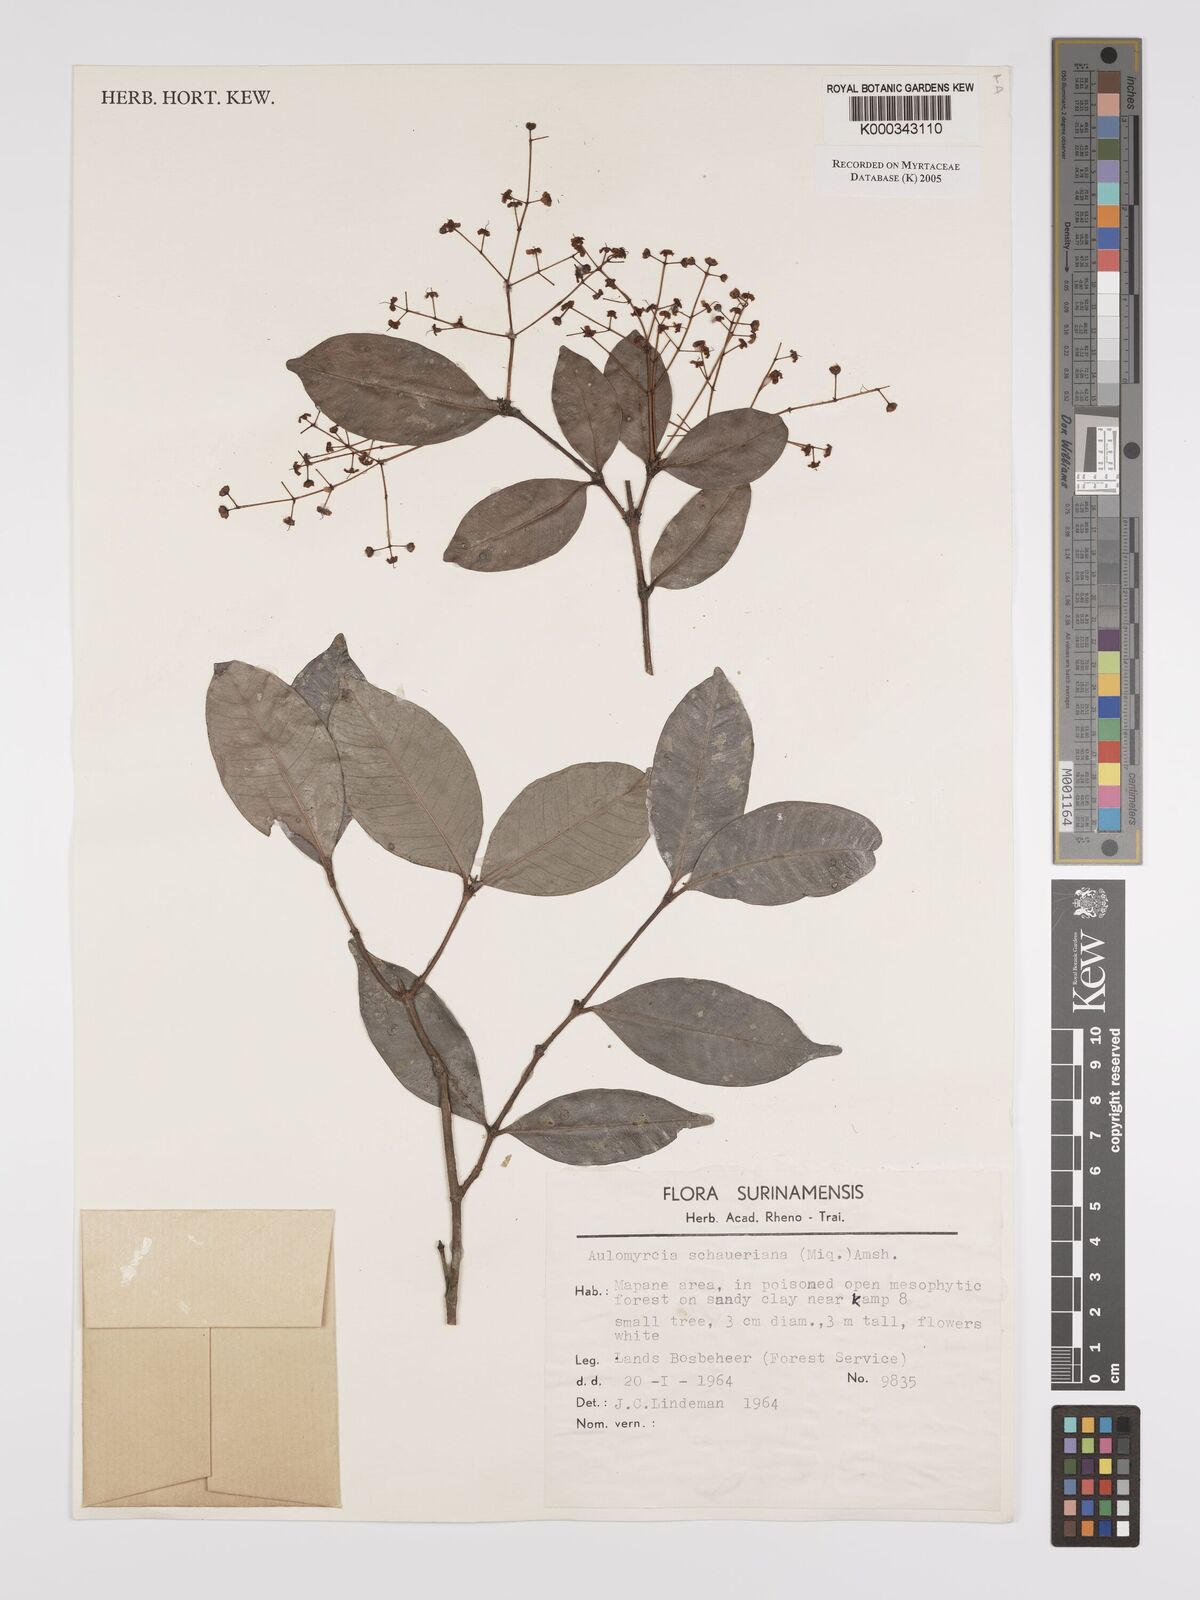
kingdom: Plantae
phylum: Tracheophyta
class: Magnoliopsida
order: Myrtales
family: Myrtaceae
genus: Myrcia
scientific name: Myrcia graciliflora
